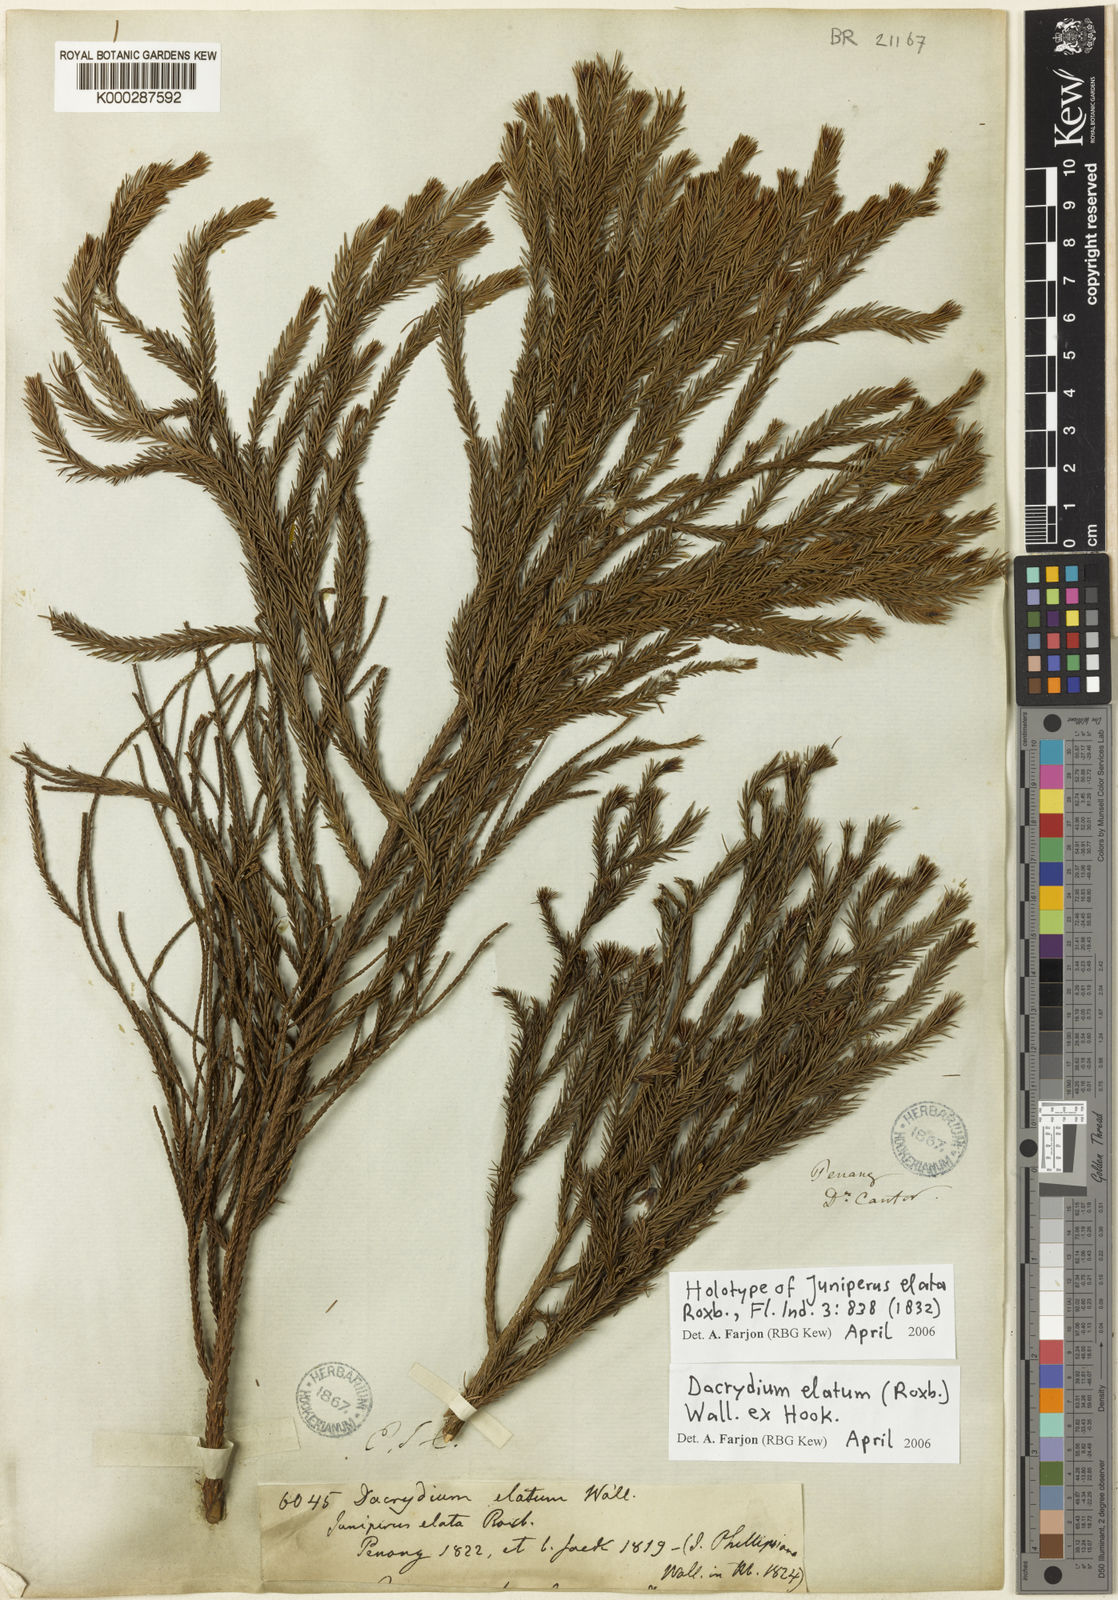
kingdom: Plantae
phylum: Tracheophyta
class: Pinopsida
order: Pinales
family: Podocarpaceae
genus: Dacrydium
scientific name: Dacrydium elatum
